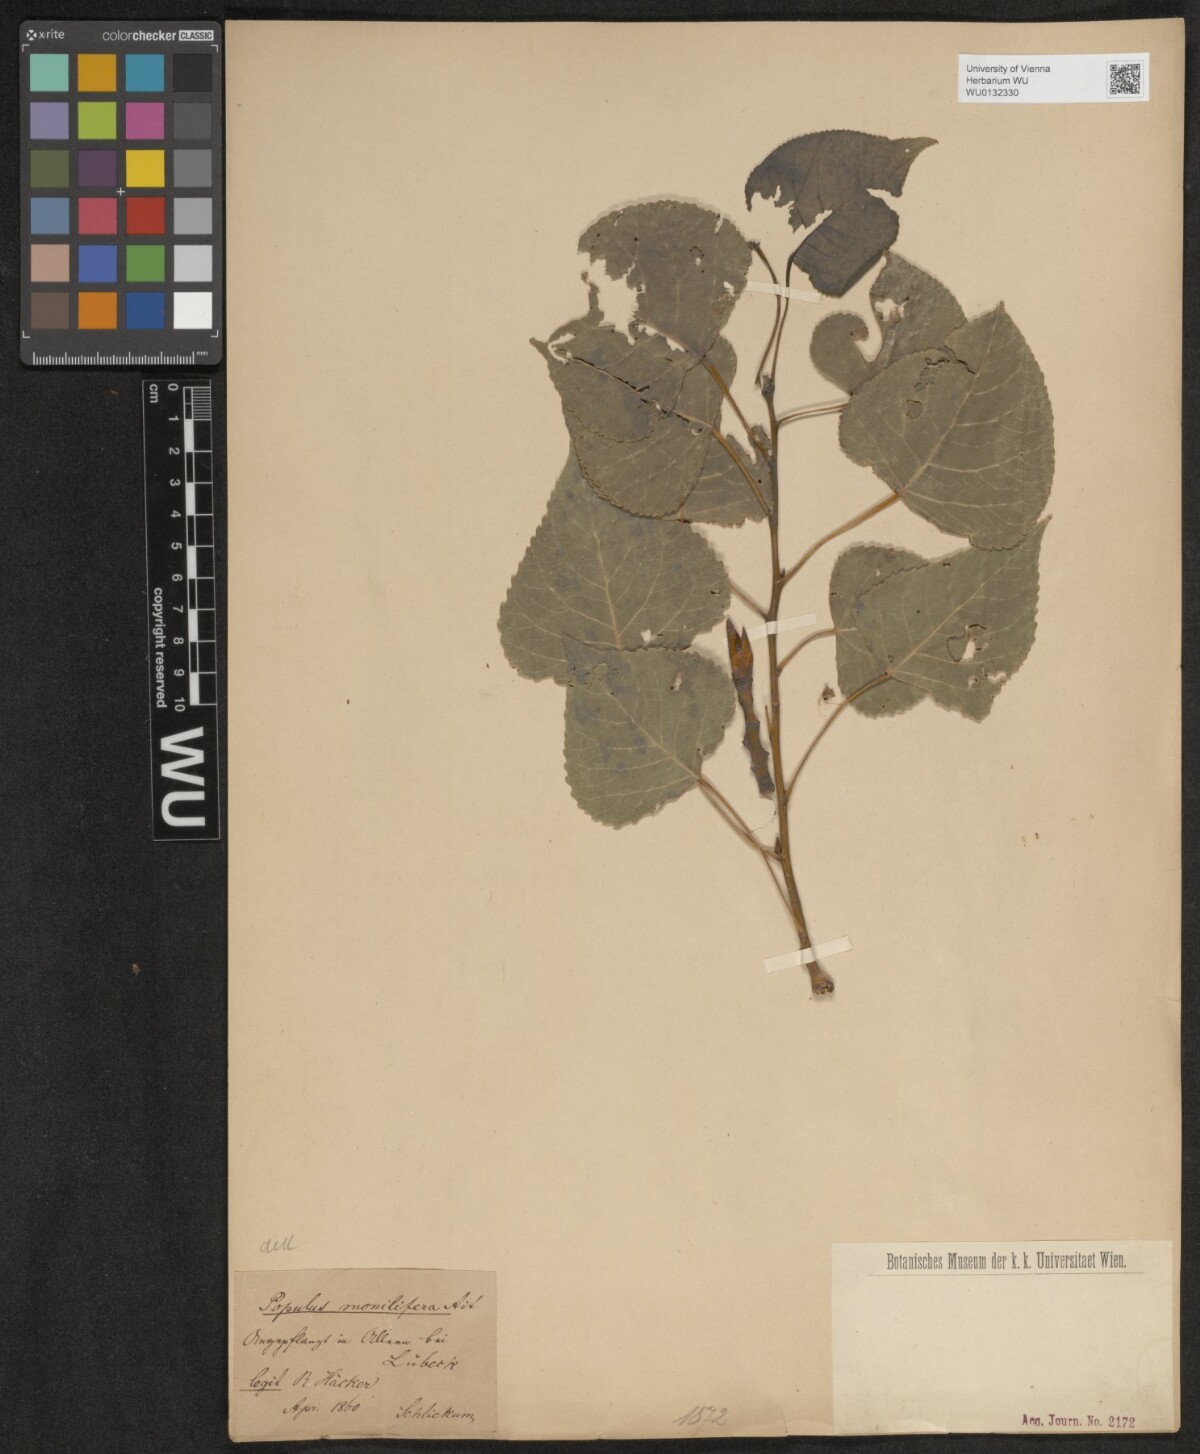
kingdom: Plantae
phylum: Tracheophyta
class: Magnoliopsida
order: Malpighiales
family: Salicaceae
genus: Populus
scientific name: Populus deltoides
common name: Eastern cottonwood
